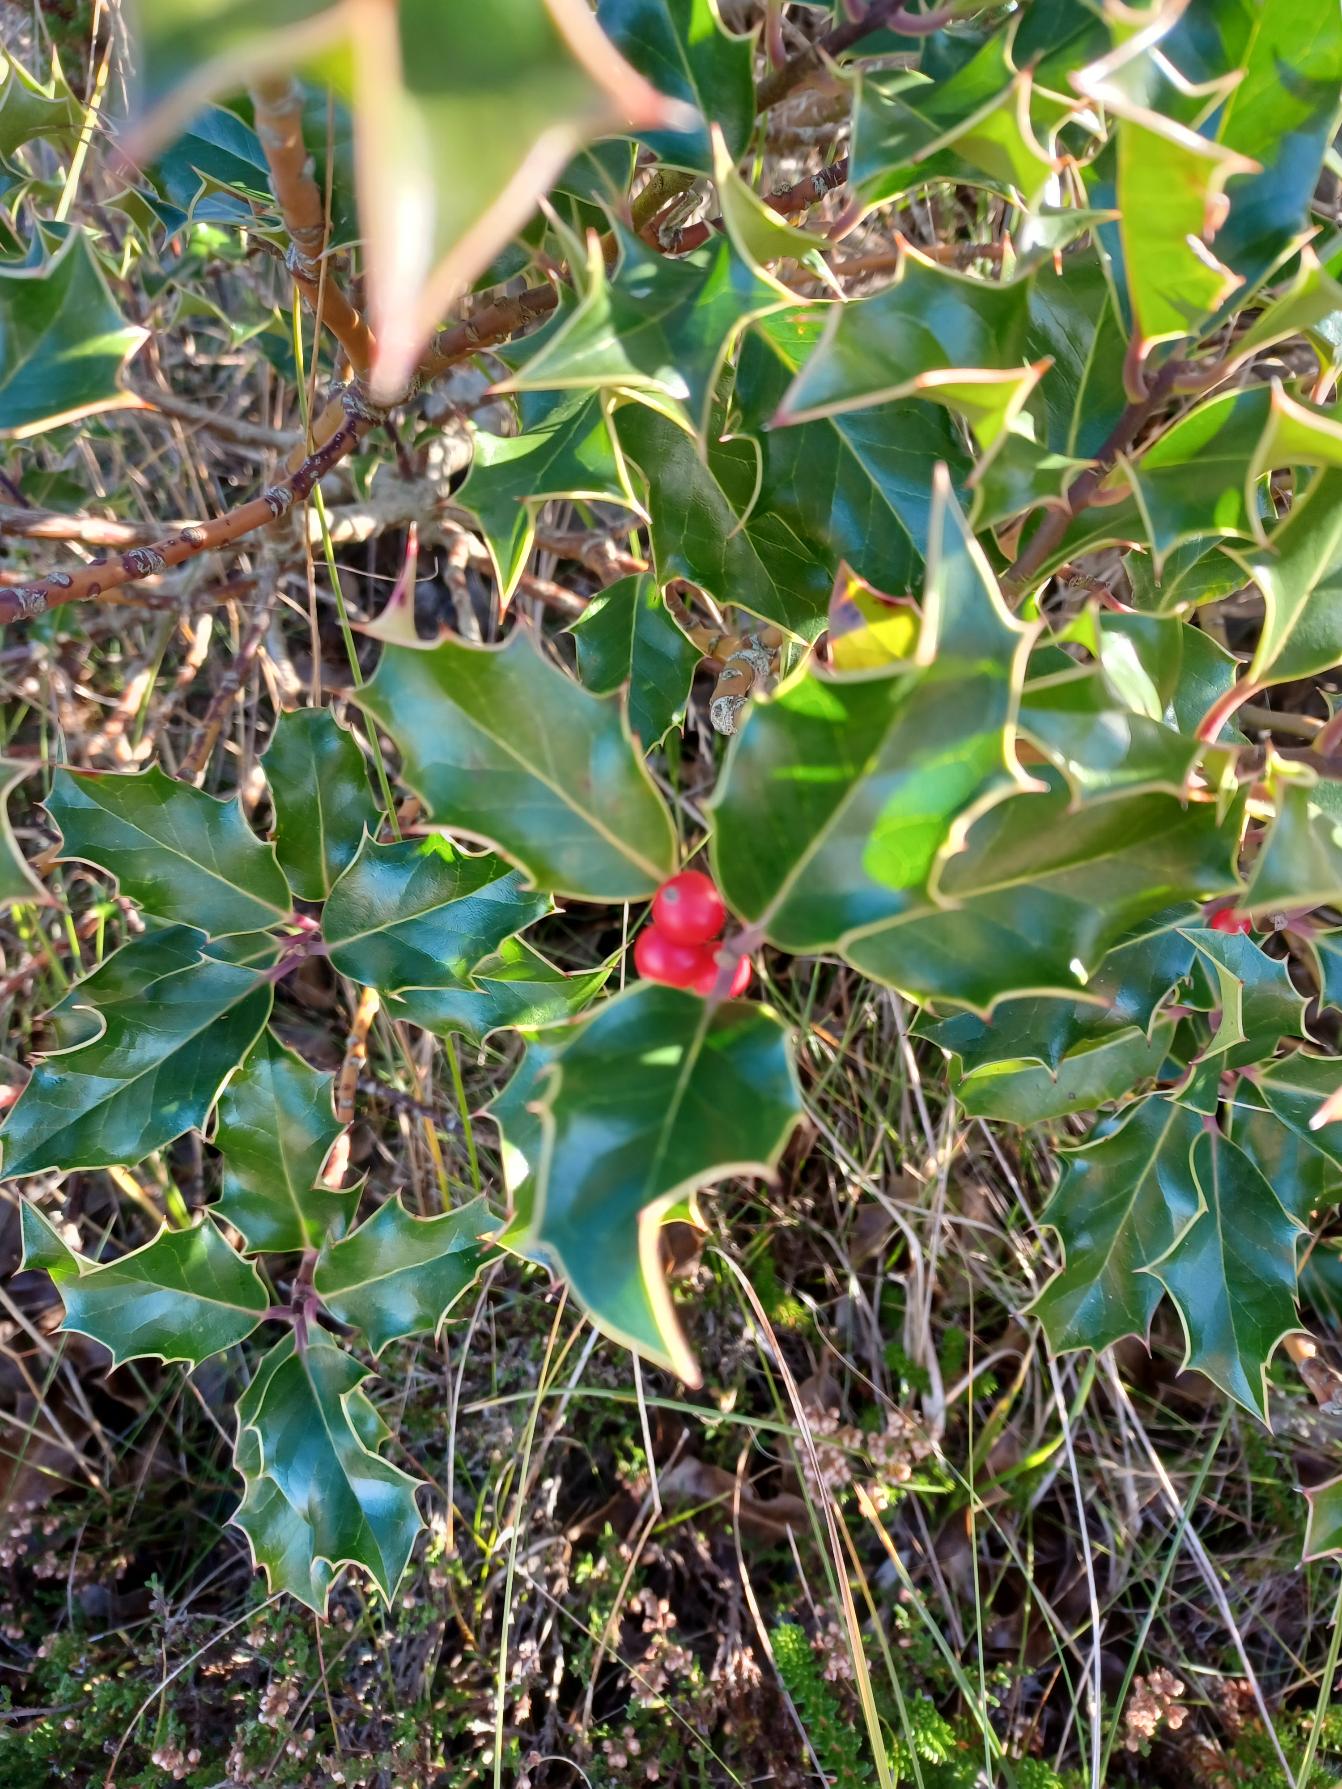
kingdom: Plantae
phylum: Tracheophyta
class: Magnoliopsida
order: Aquifoliales
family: Aquifoliaceae
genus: Ilex
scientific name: Ilex aquifolium
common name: Kristtorn
